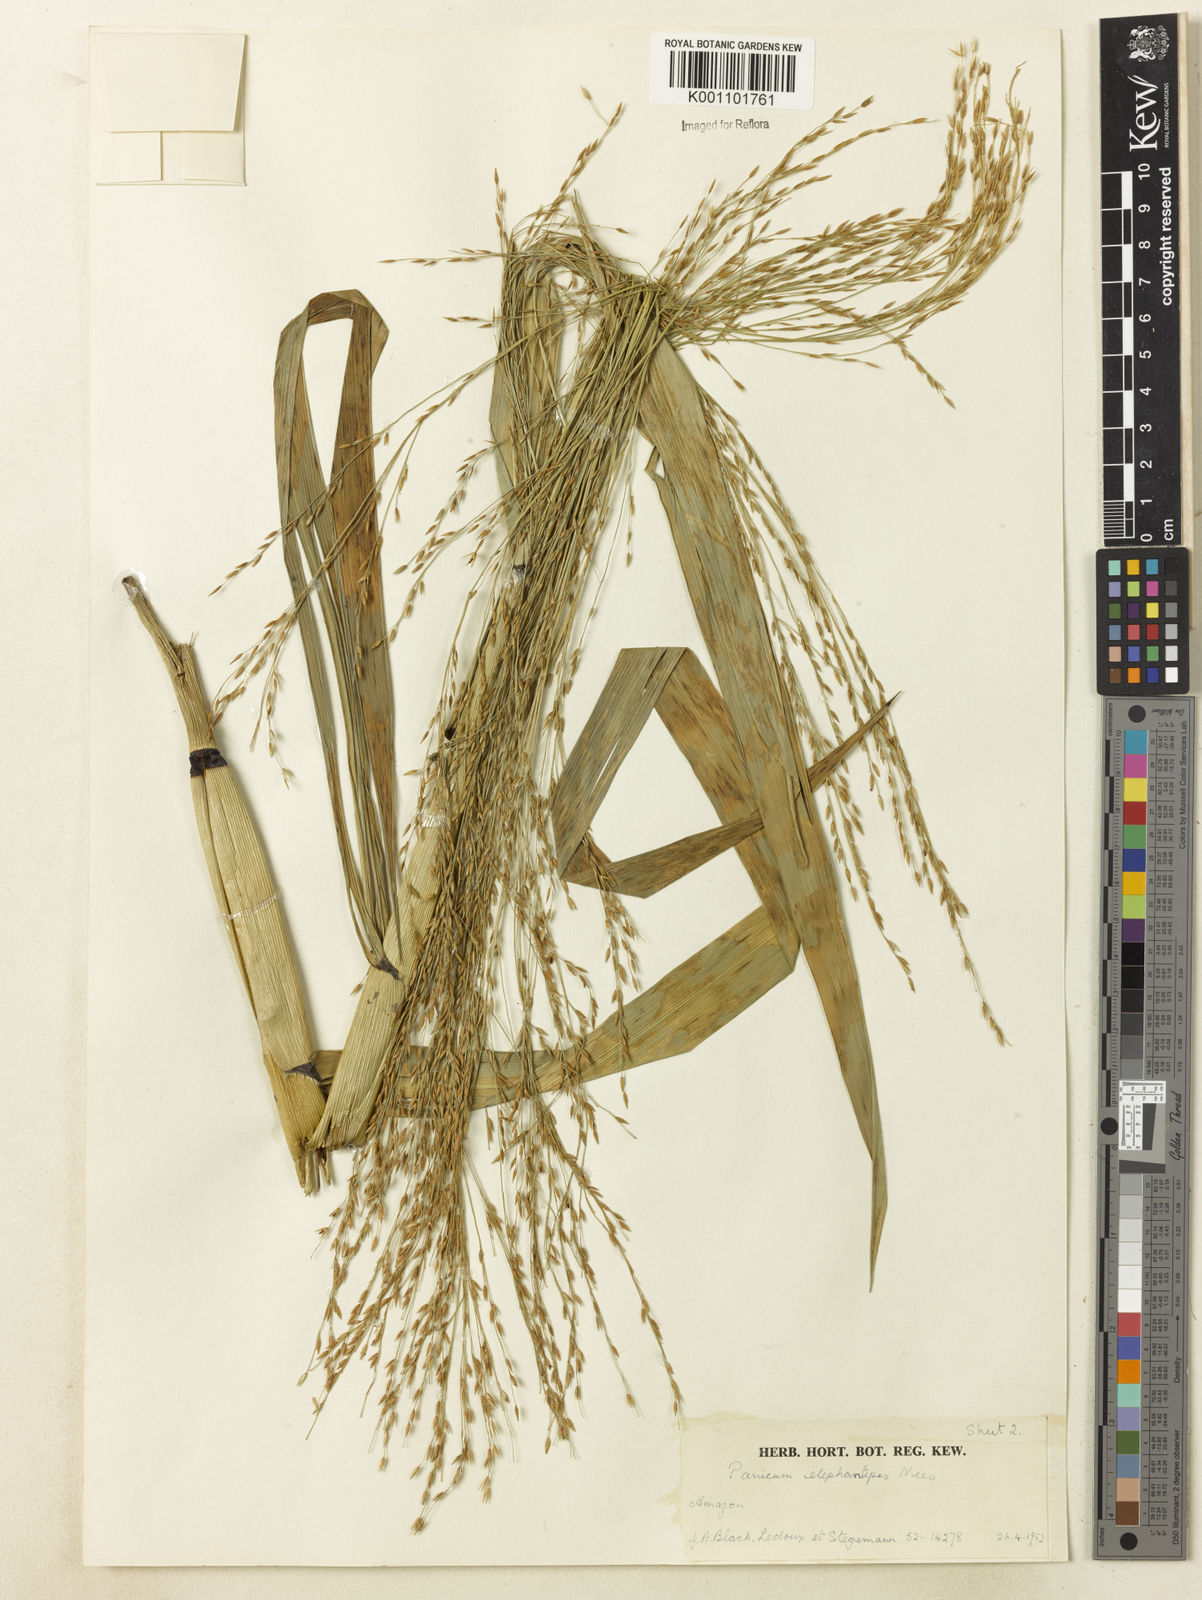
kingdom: Plantae
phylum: Tracheophyta
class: Liliopsida
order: Poales
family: Poaceae
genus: Louisiella
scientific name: Louisiella elephantipes
